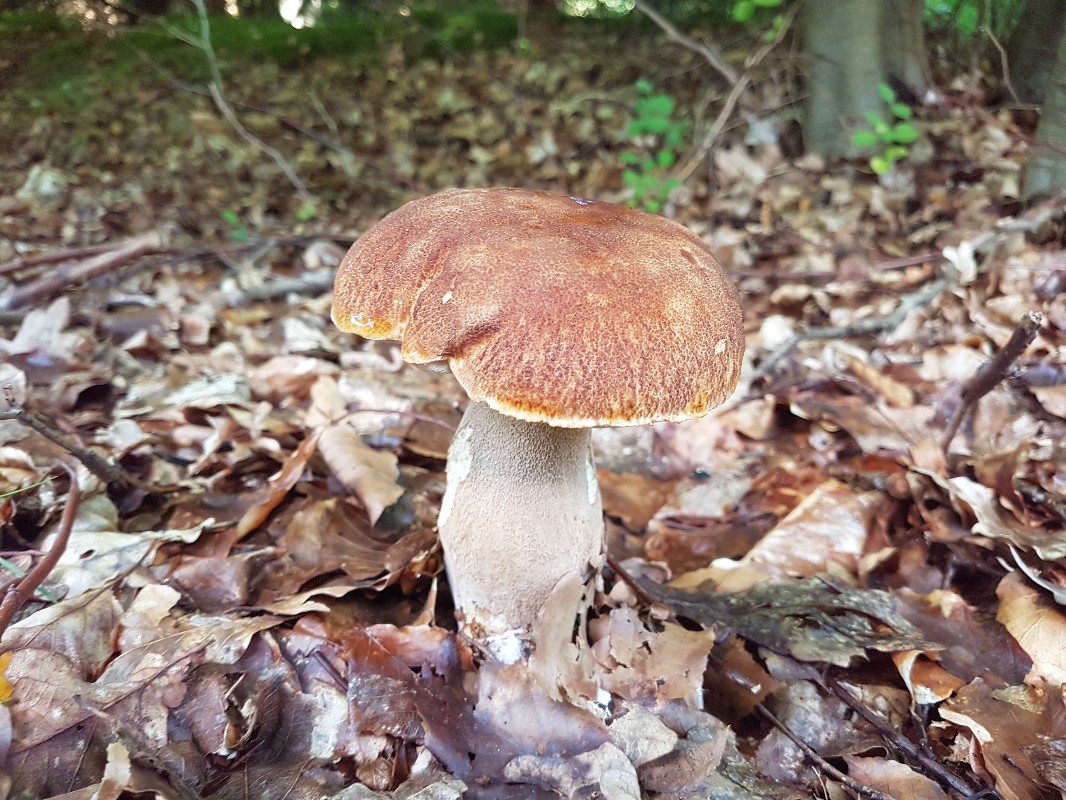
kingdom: Fungi
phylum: Basidiomycota
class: Agaricomycetes
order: Boletales
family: Boletaceae
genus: Boletus
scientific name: Boletus reticulatus
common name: sommer-rørhat
